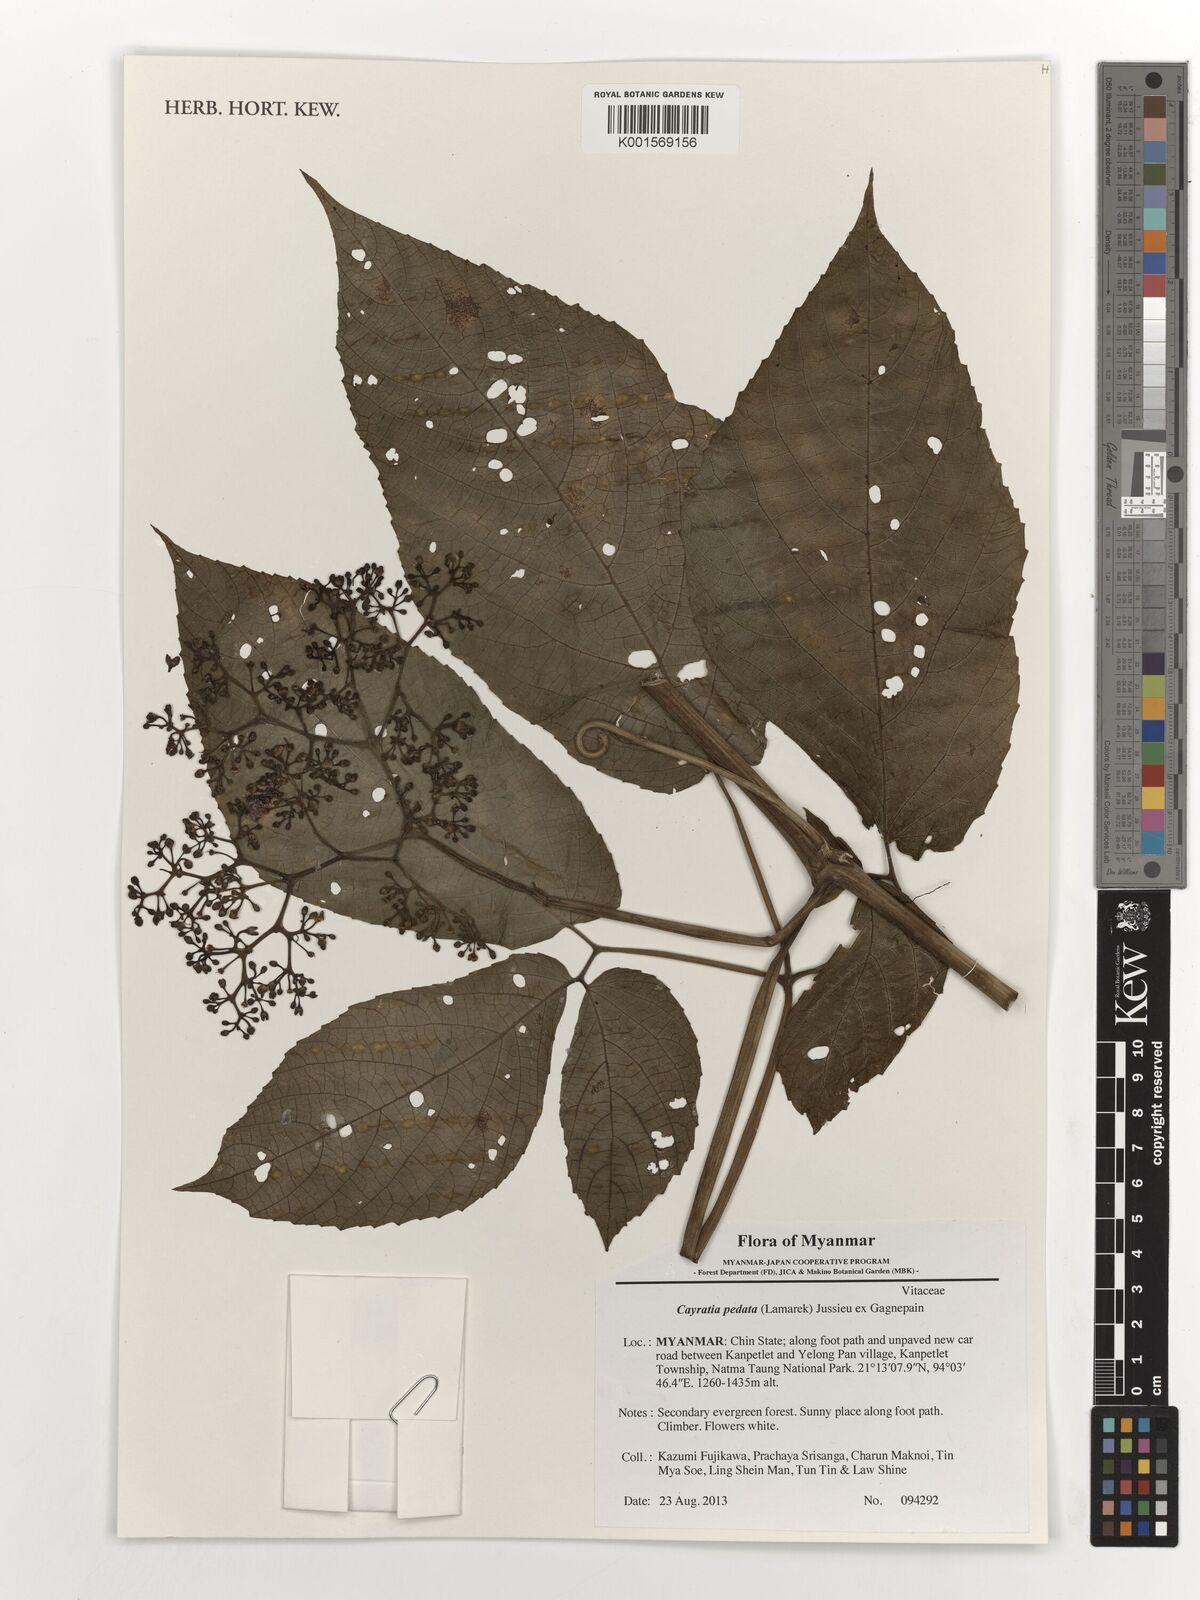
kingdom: Plantae
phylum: Tracheophyta
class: Magnoliopsida
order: Vitales
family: Vitaceae
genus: Cayratia
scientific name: Cayratia pedata
